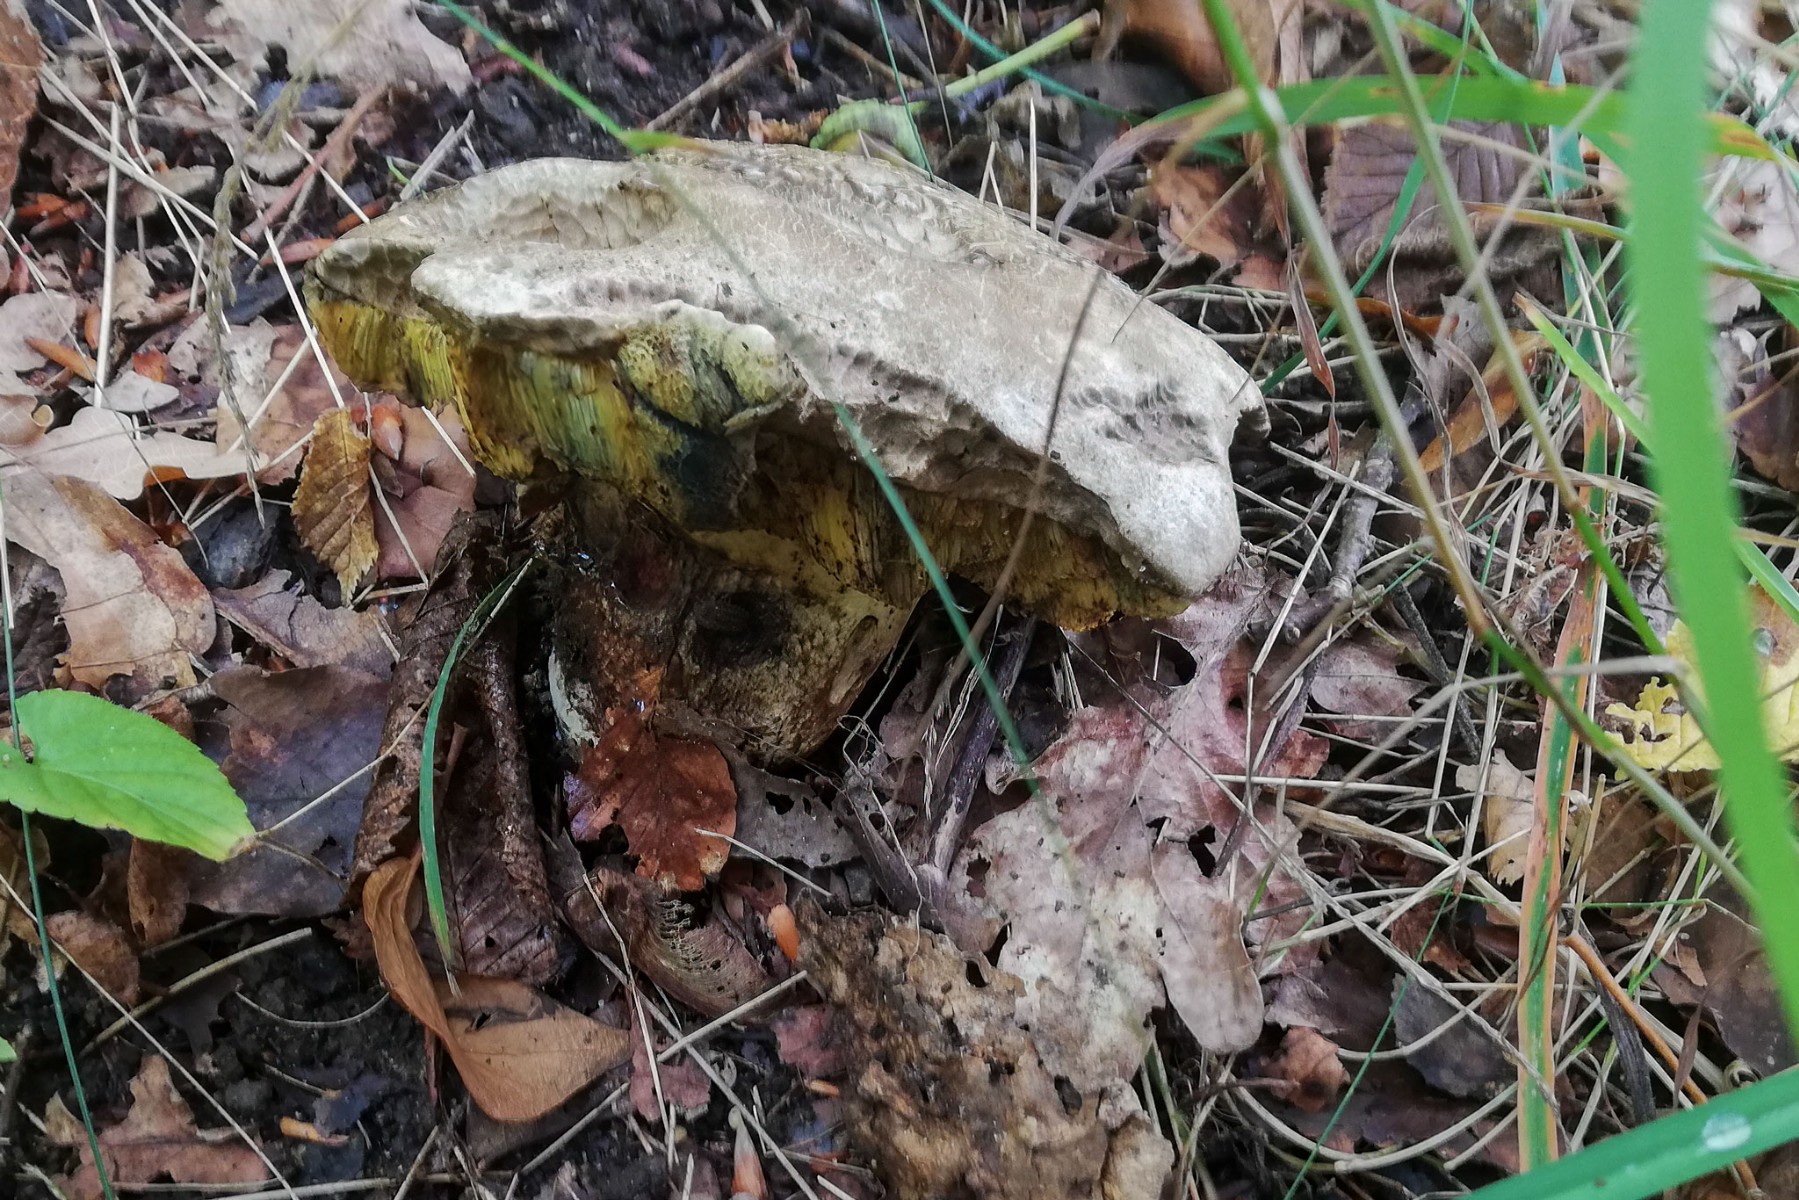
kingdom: Fungi
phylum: Basidiomycota
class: Agaricomycetes
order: Boletales
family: Boletaceae
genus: Caloboletus
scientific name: Caloboletus radicans
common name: rod-rørhat
